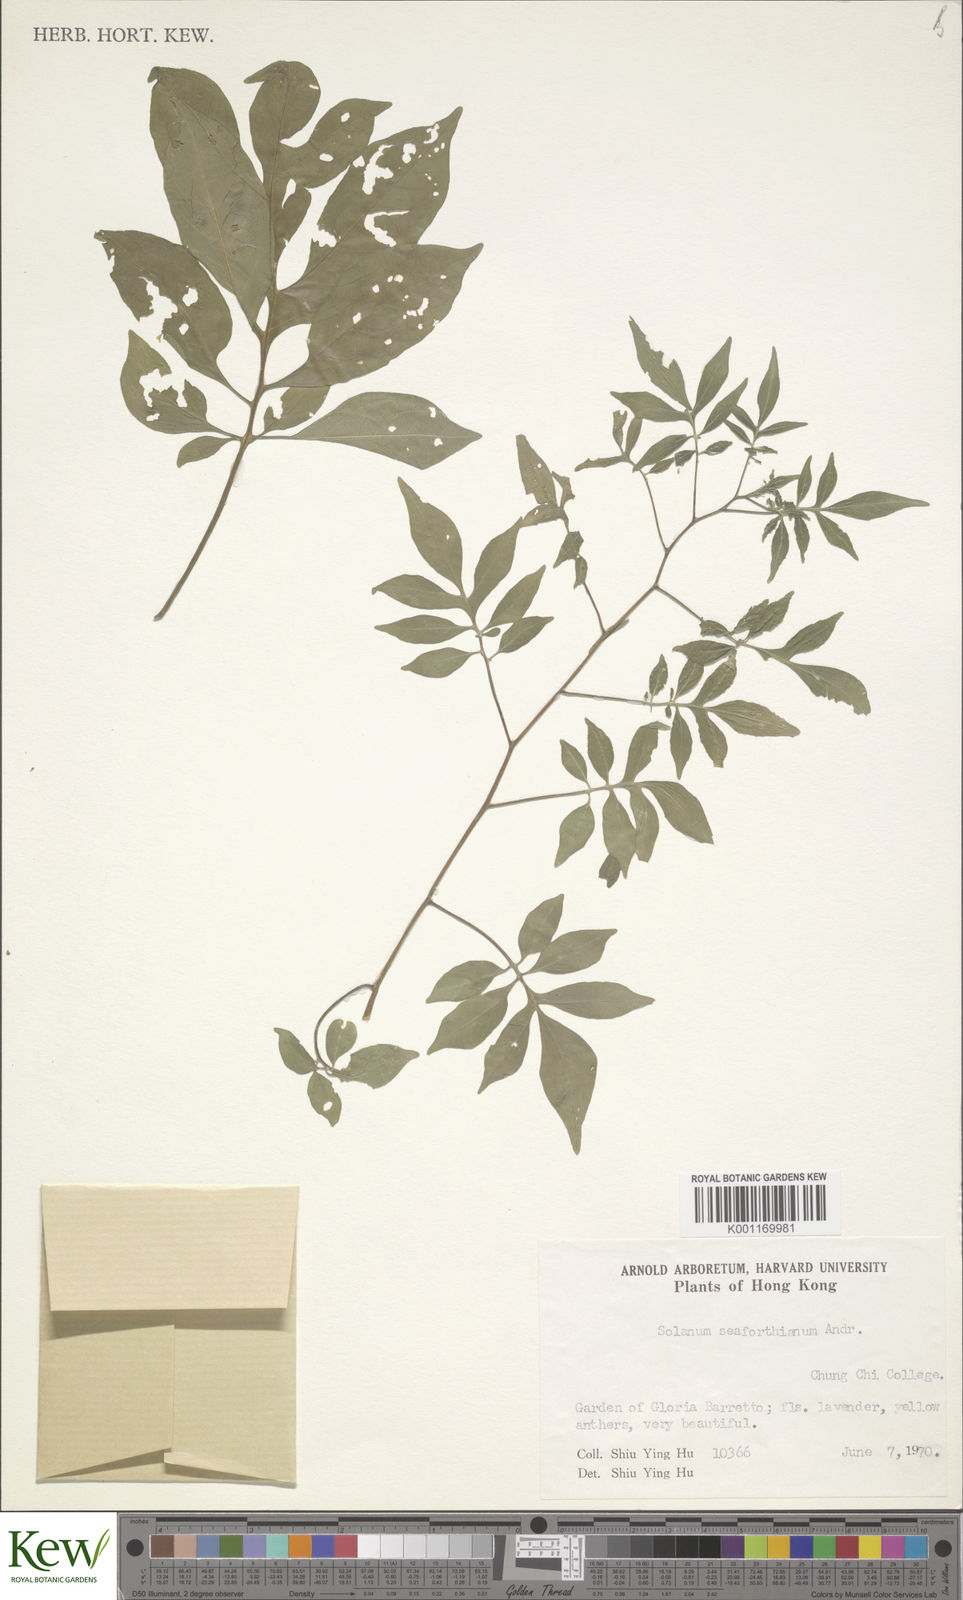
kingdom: Plantae
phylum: Tracheophyta
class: Magnoliopsida
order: Solanales
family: Solanaceae
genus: Solanum
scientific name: Solanum seaforthianum
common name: Brazilian nightshade
